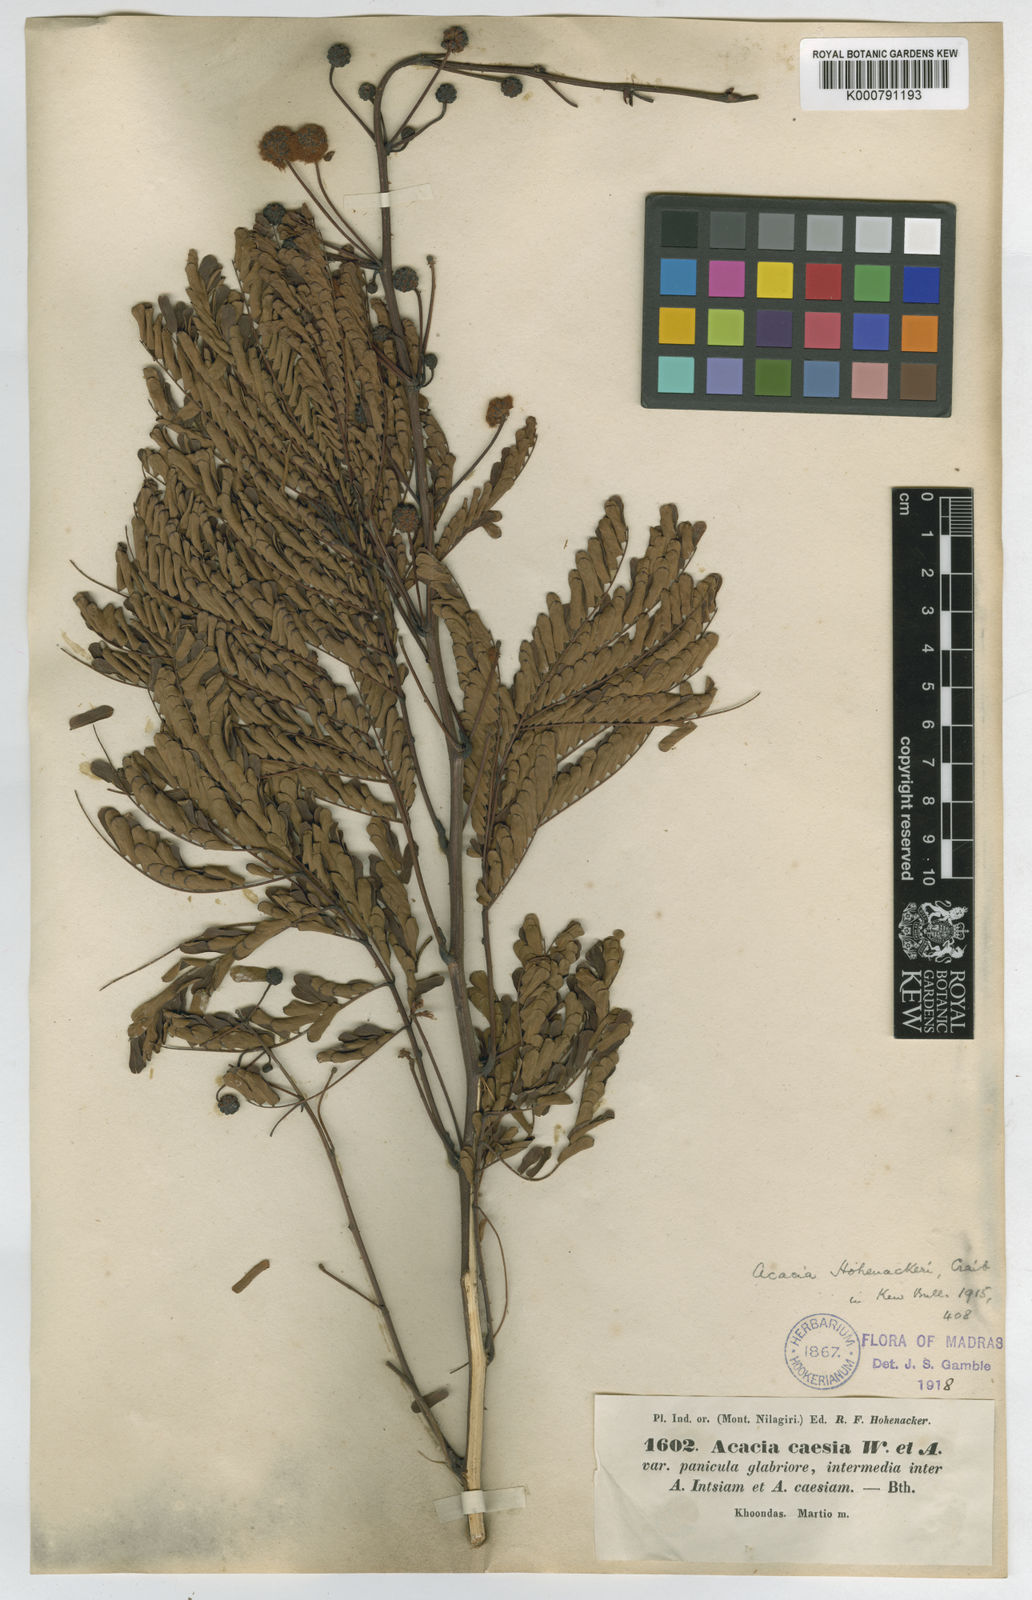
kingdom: Plantae
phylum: Tracheophyta
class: Magnoliopsida
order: Fabales
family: Fabaceae
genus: Senegalia
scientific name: Senegalia hohenackeri
